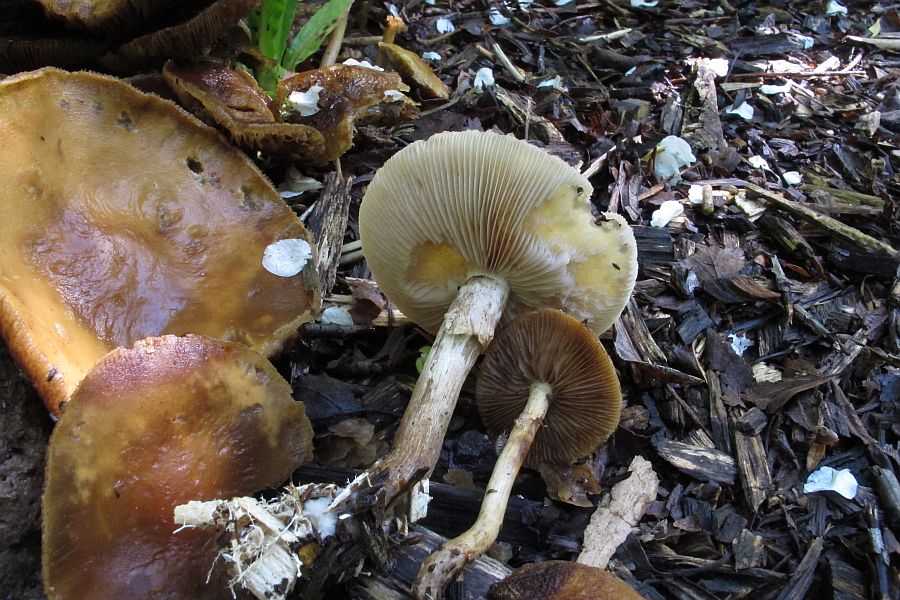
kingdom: Fungi
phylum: Basidiomycota
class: Agaricomycetes
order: Agaricales
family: Strophariaceae
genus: Agrocybe
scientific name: Agrocybe praecox
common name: tidlig agerhat
